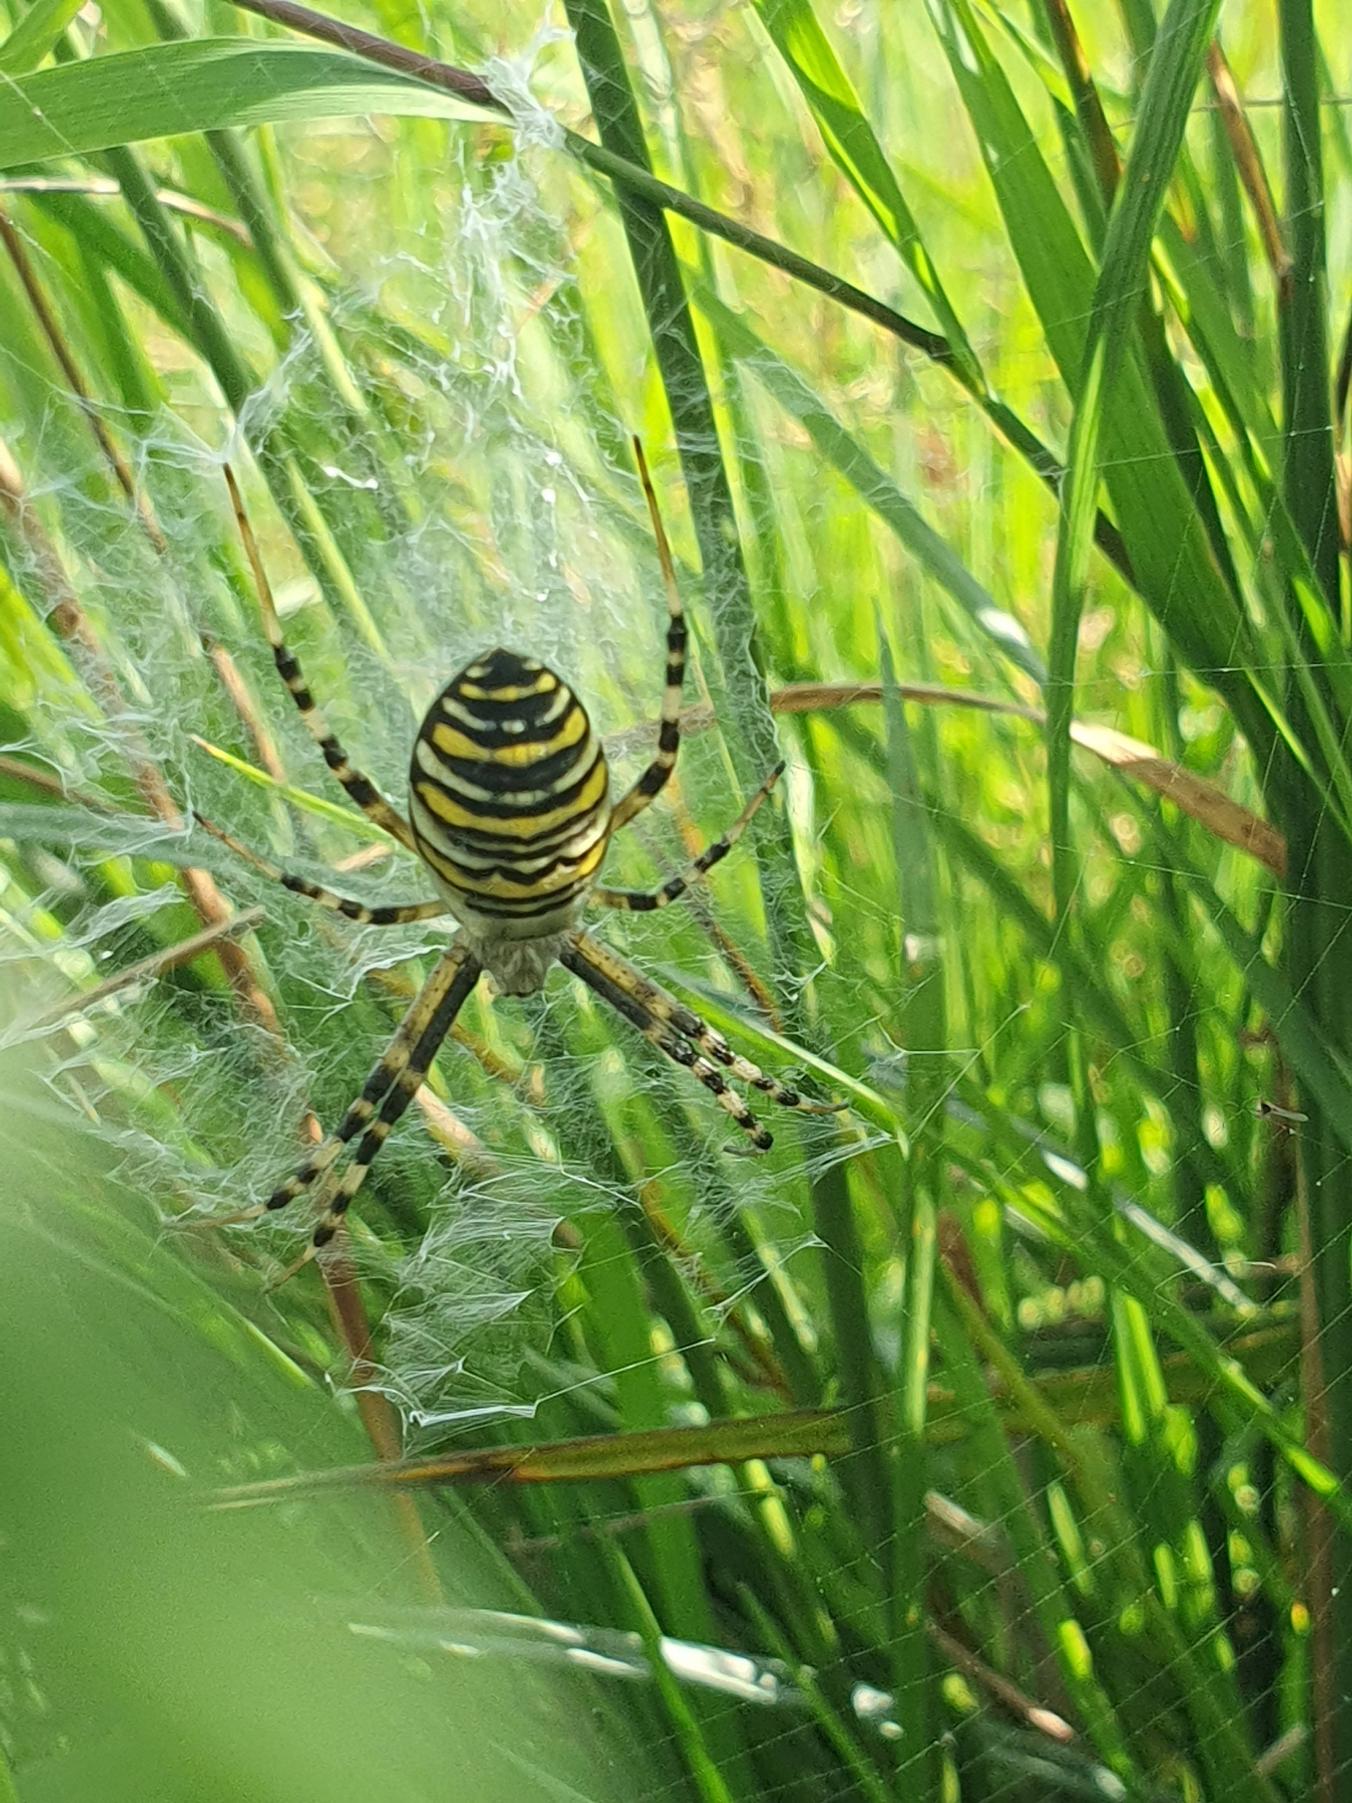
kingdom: Animalia
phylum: Arthropoda
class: Arachnida
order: Araneae
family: Araneidae
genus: Argiope
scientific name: Argiope bruennichi
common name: Hvepseedderkop
